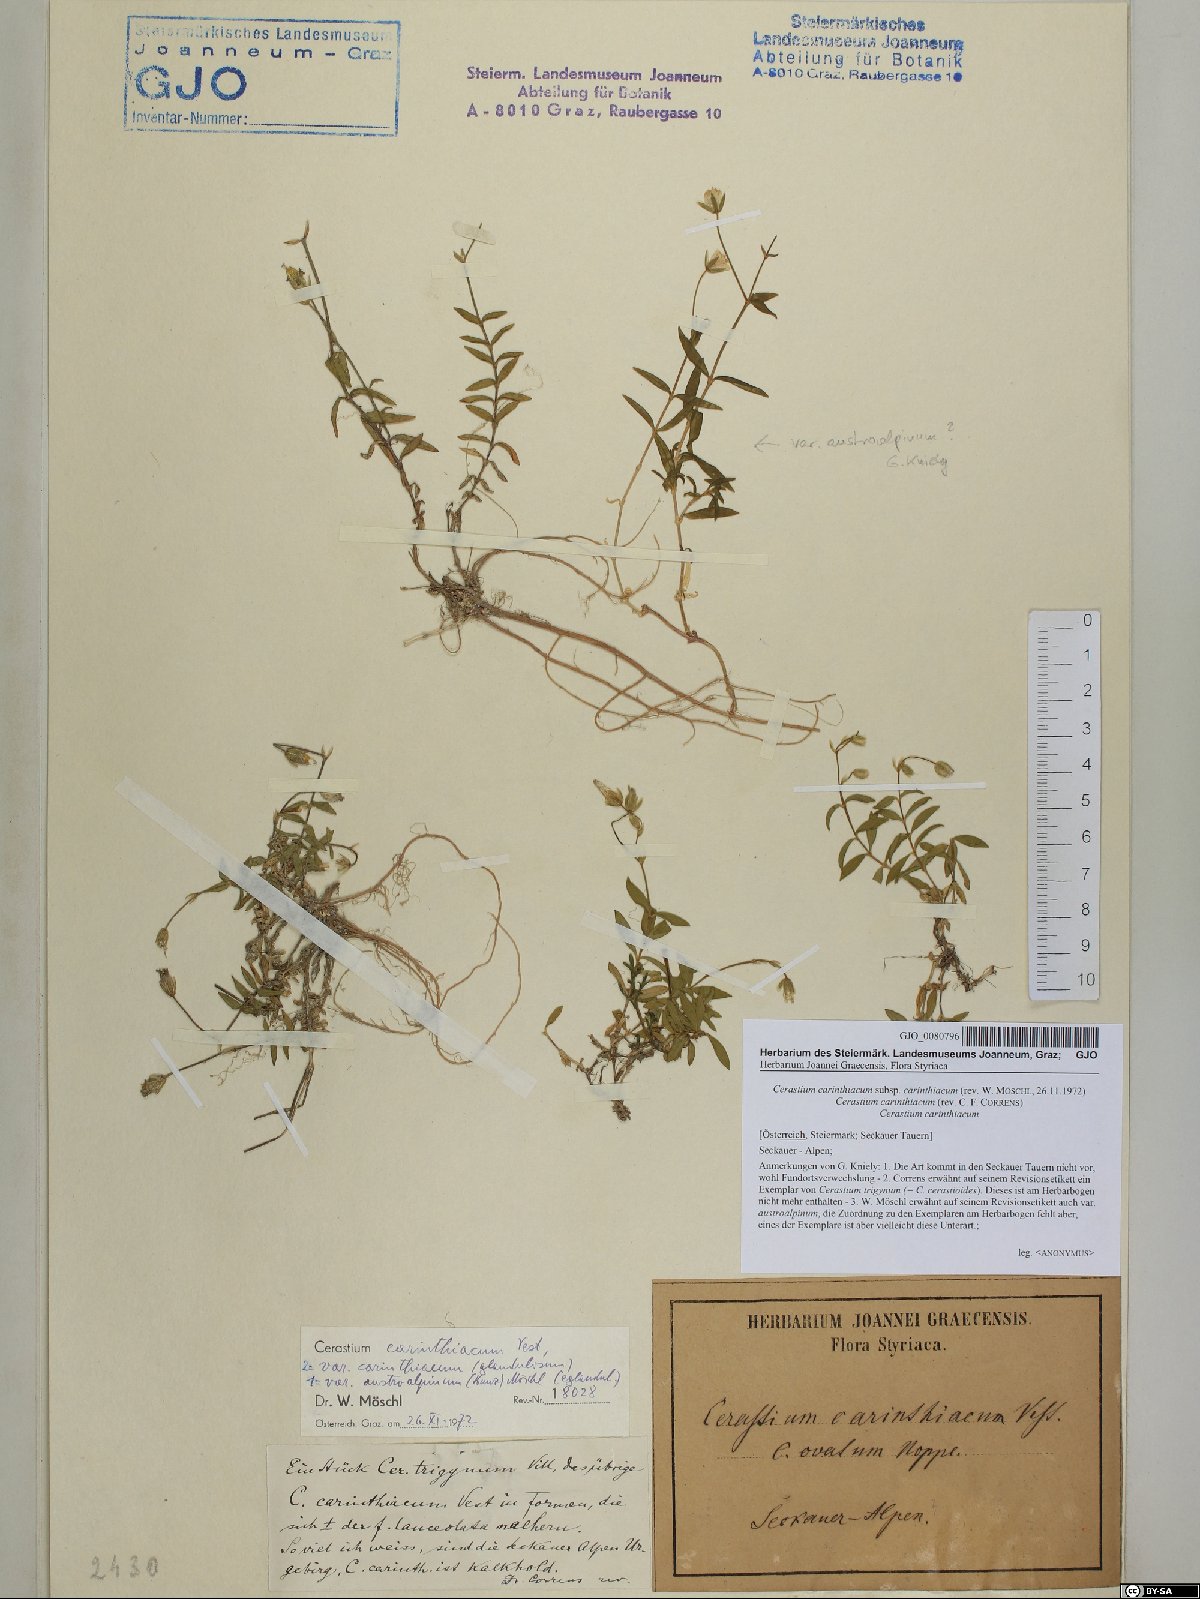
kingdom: Plantae
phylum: Tracheophyta
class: Magnoliopsida
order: Caryophyllales
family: Caryophyllaceae
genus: Cerastium
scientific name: Cerastium carinthiacum
